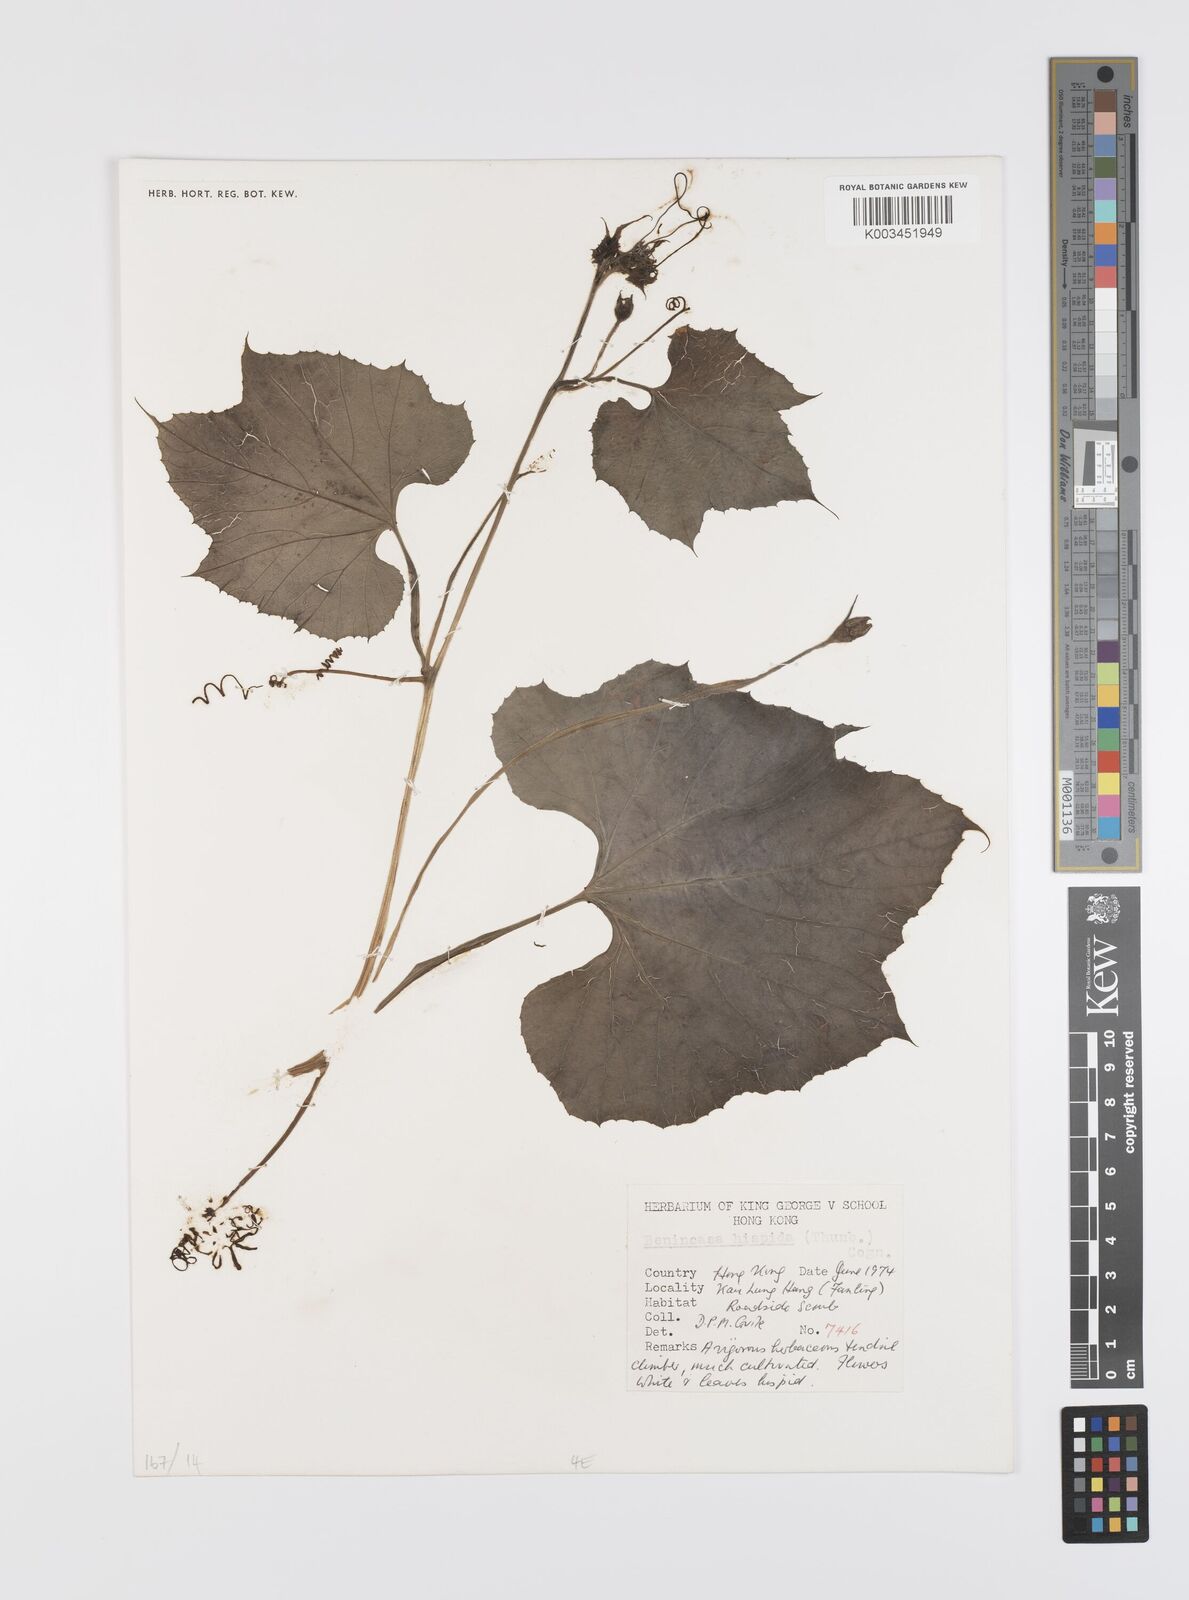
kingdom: Plantae
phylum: Tracheophyta
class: Magnoliopsida
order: Cucurbitales
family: Cucurbitaceae
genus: Benincasa
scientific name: Benincasa hispida
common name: Chinese-watermelon
